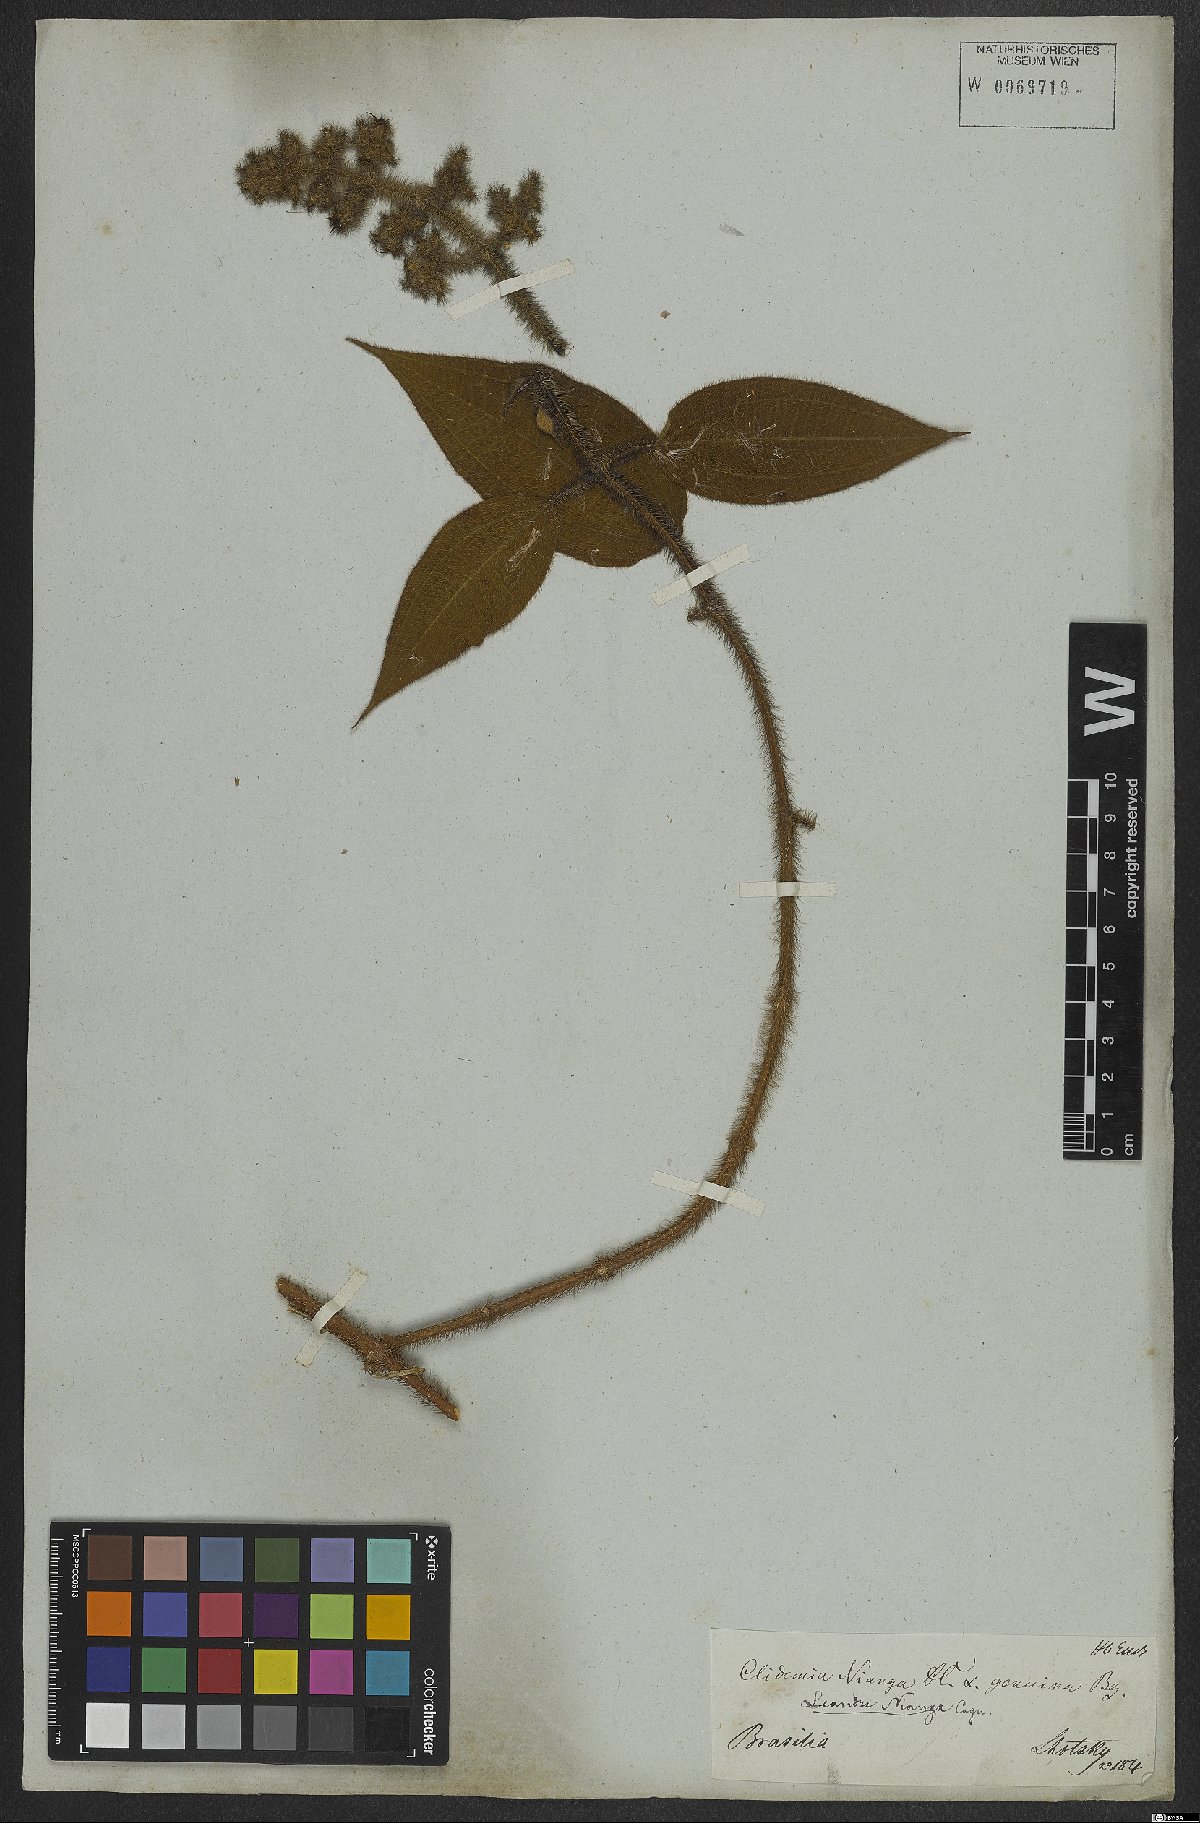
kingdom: Plantae
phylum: Tracheophyta
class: Magnoliopsida
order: Myrtales
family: Melastomataceae
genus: Miconia
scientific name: Miconia nianga
